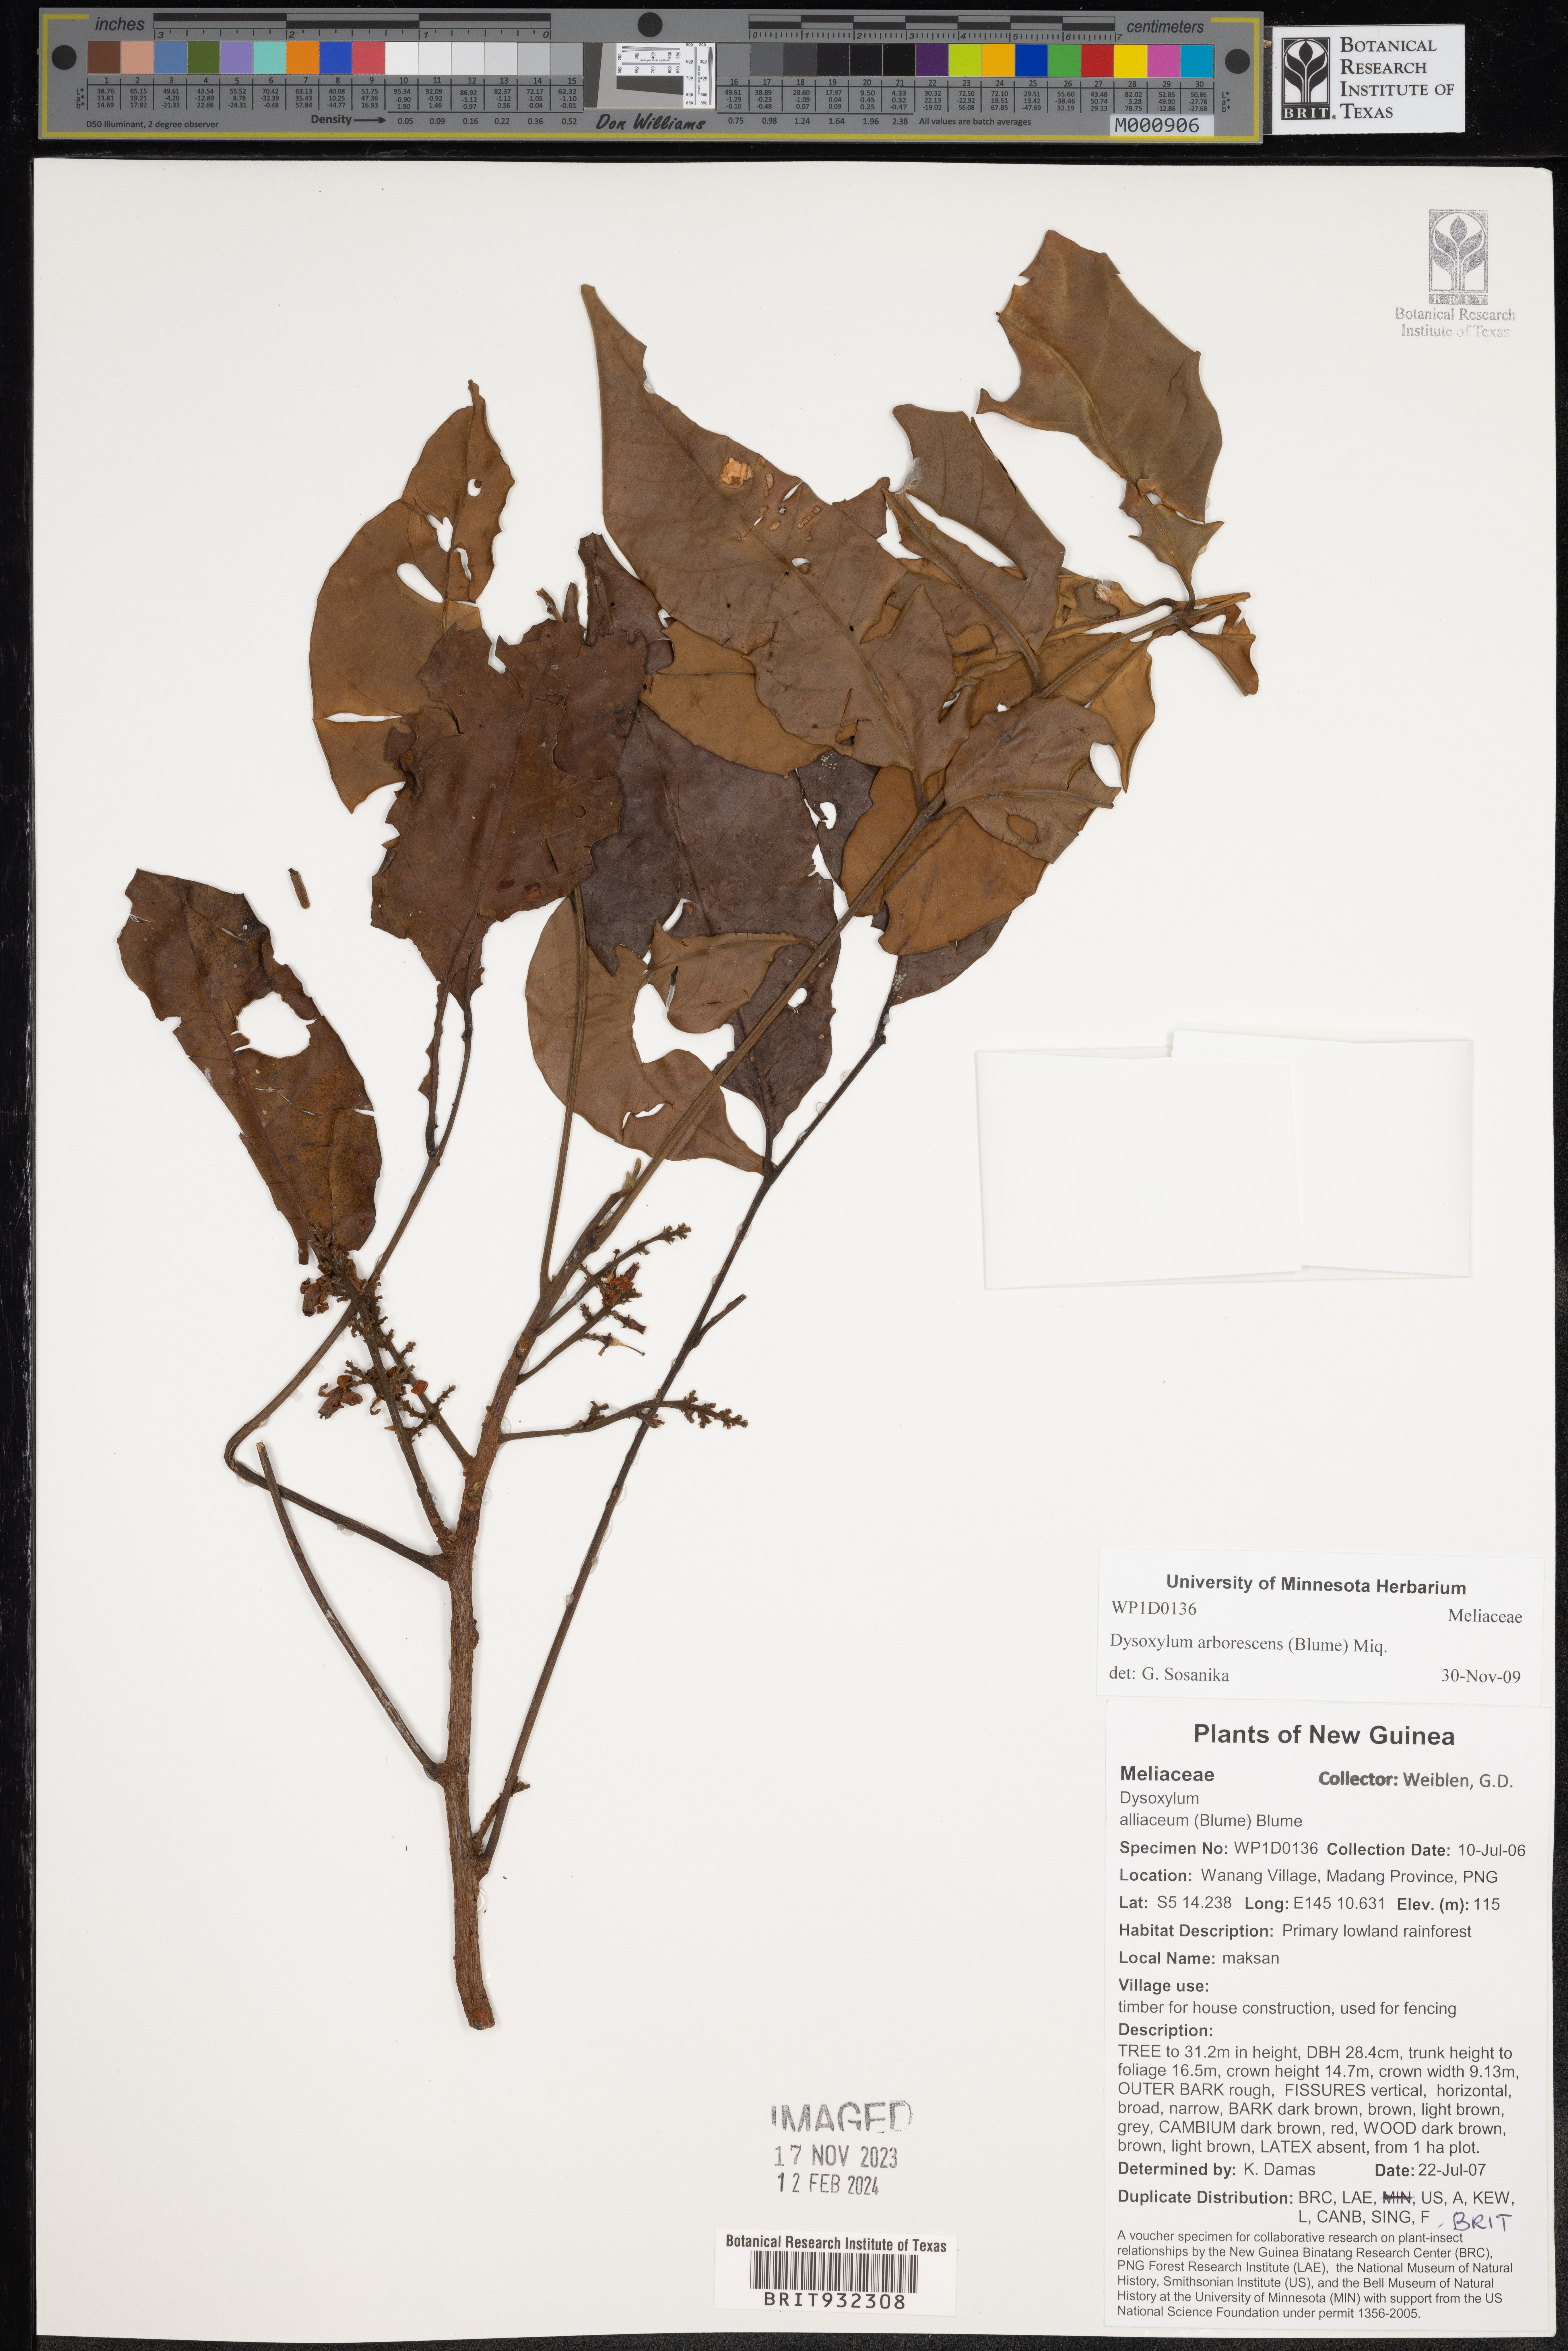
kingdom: Plantae
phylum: Tracheophyta
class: Magnoliopsida
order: Sapindales
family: Meliaceae
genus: Dysoxylum
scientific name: Dysoxylum
